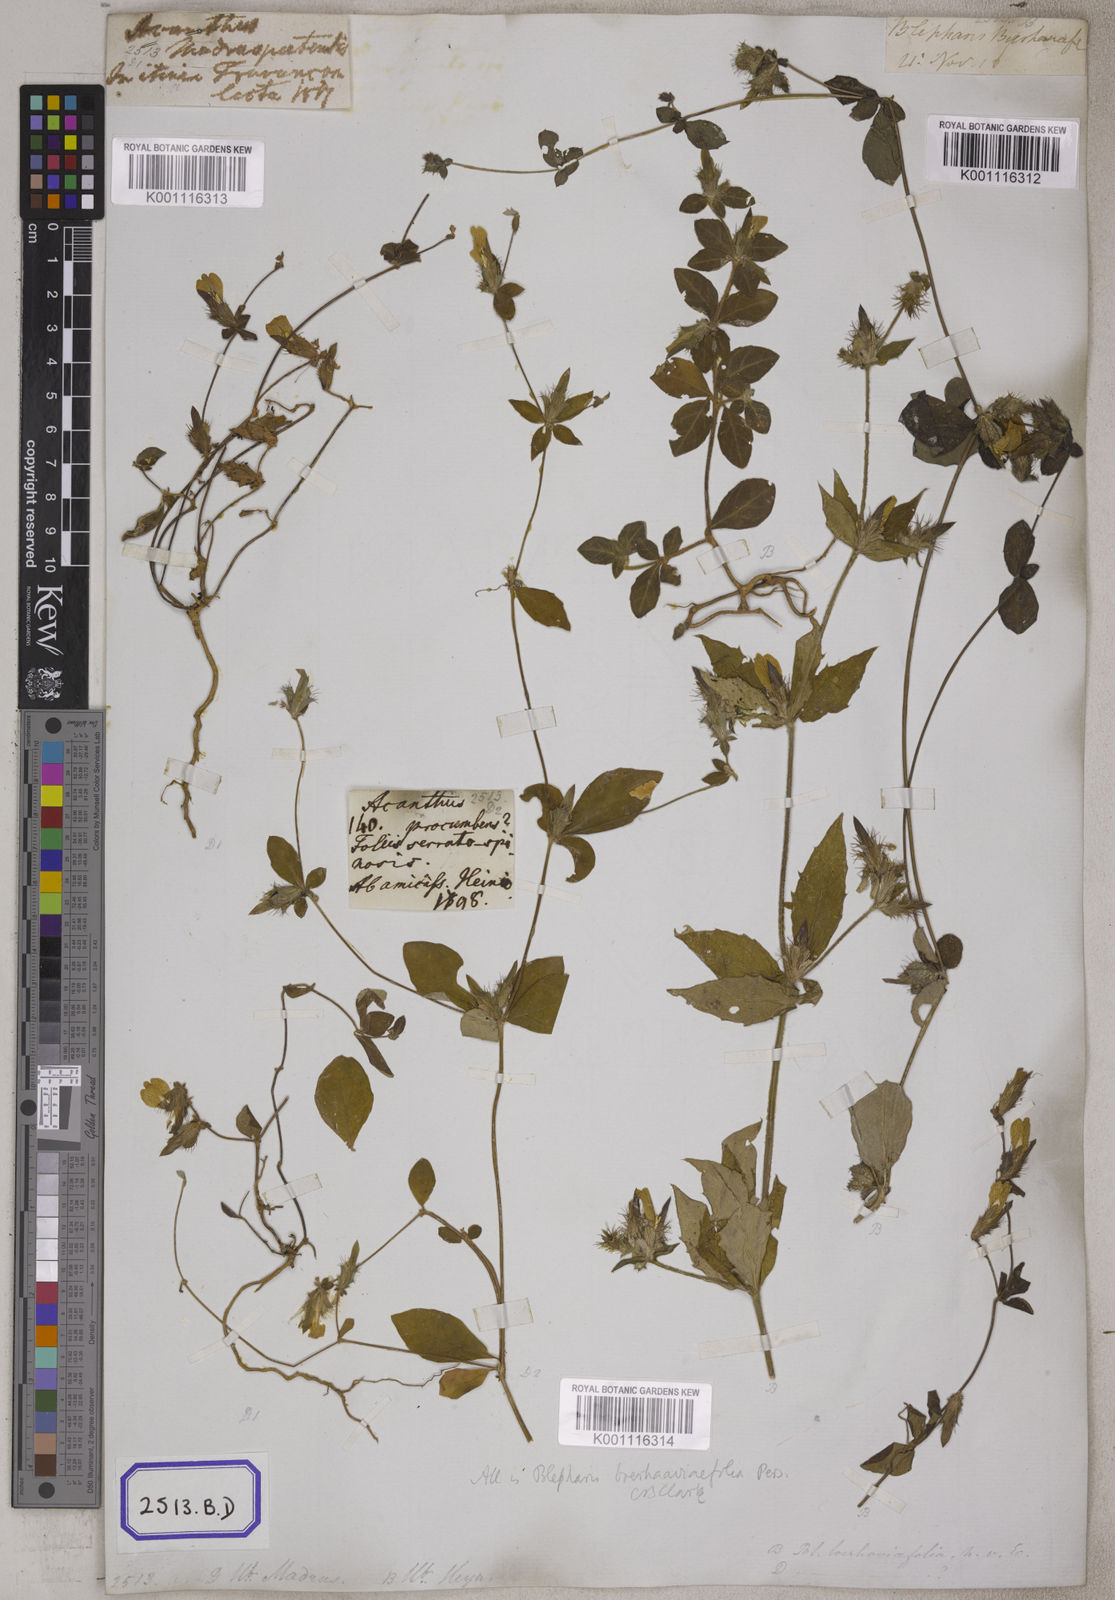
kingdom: Plantae
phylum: Tracheophyta
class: Magnoliopsida
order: Lamiales
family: Acanthaceae
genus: Blepharis
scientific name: Blepharis
